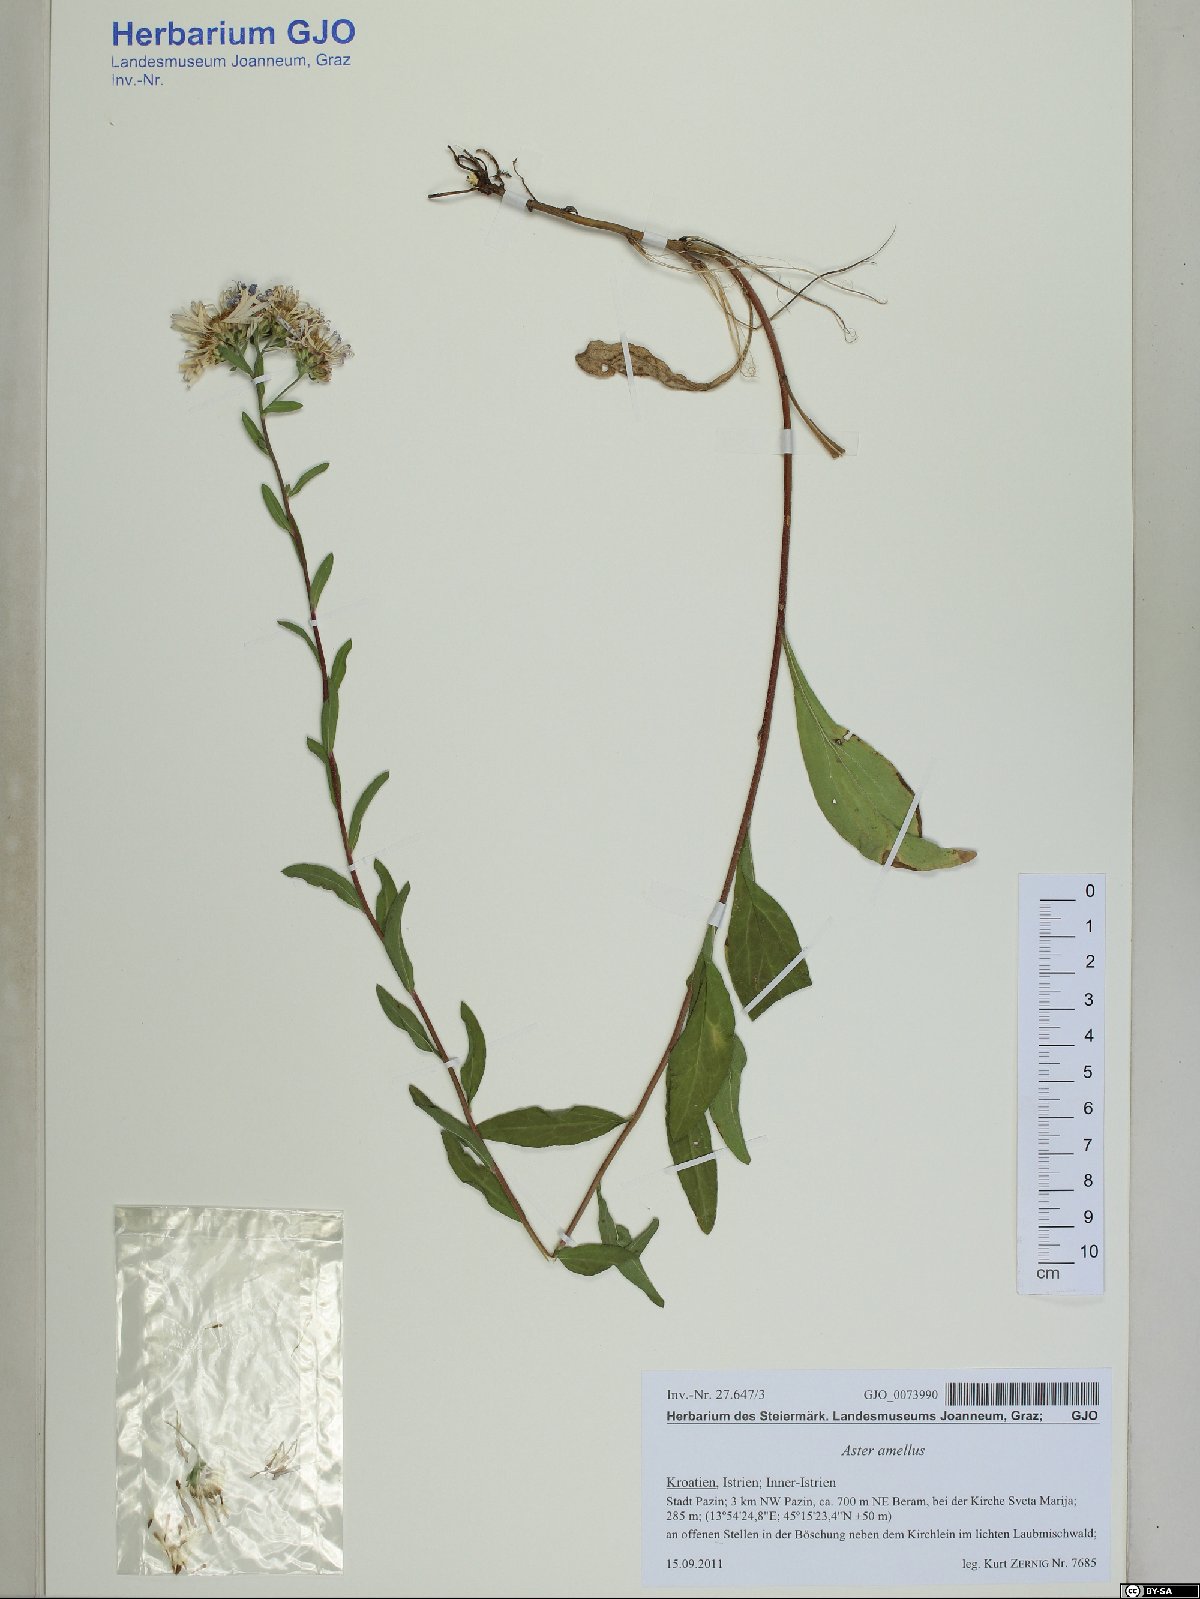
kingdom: Plantae
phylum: Tracheophyta
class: Magnoliopsida
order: Asterales
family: Asteraceae
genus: Aster
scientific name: Aster amellus
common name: European michaelmas daisy
